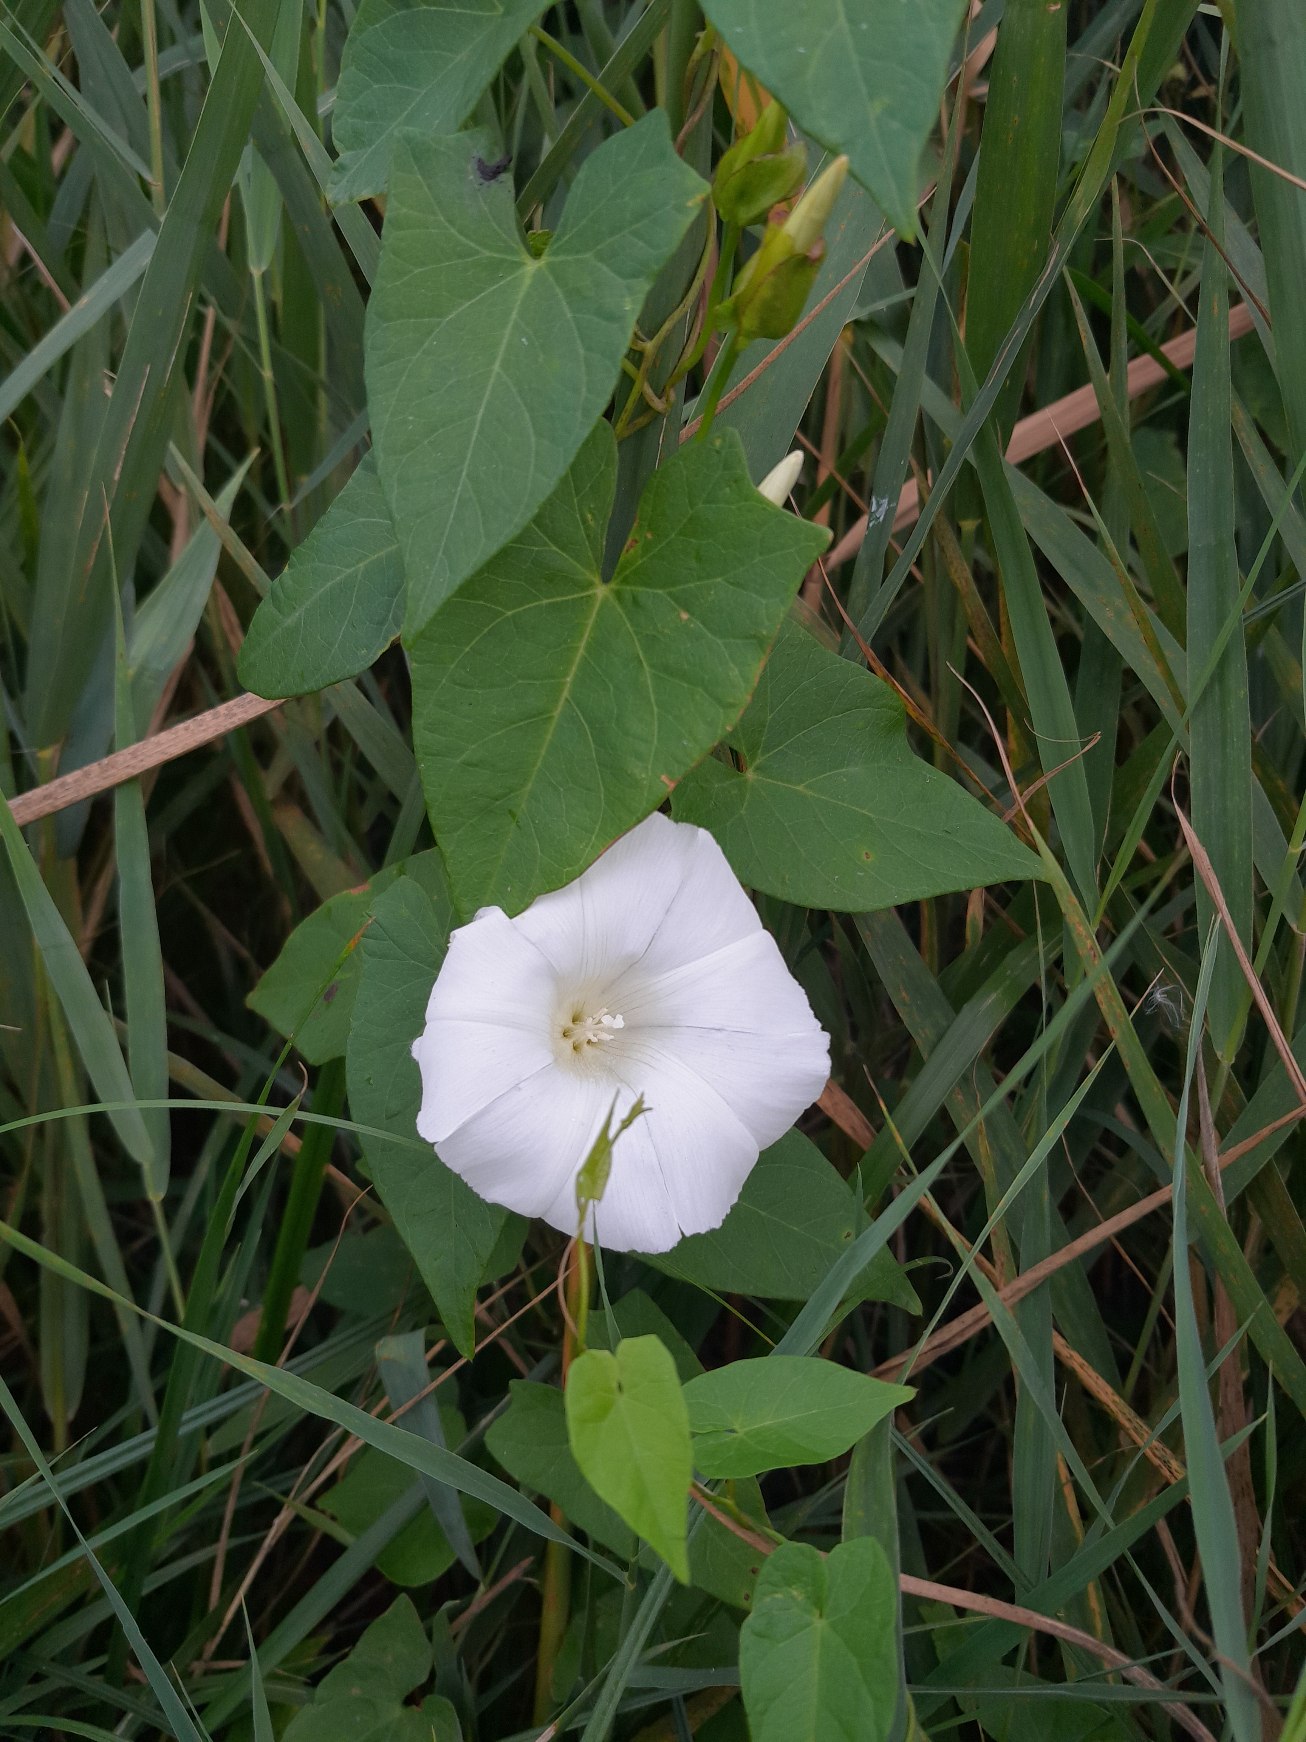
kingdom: Plantae
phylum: Tracheophyta
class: Magnoliopsida
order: Solanales
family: Convolvulaceae
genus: Calystegia
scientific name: Calystegia sepium
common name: Gærde-snerle
